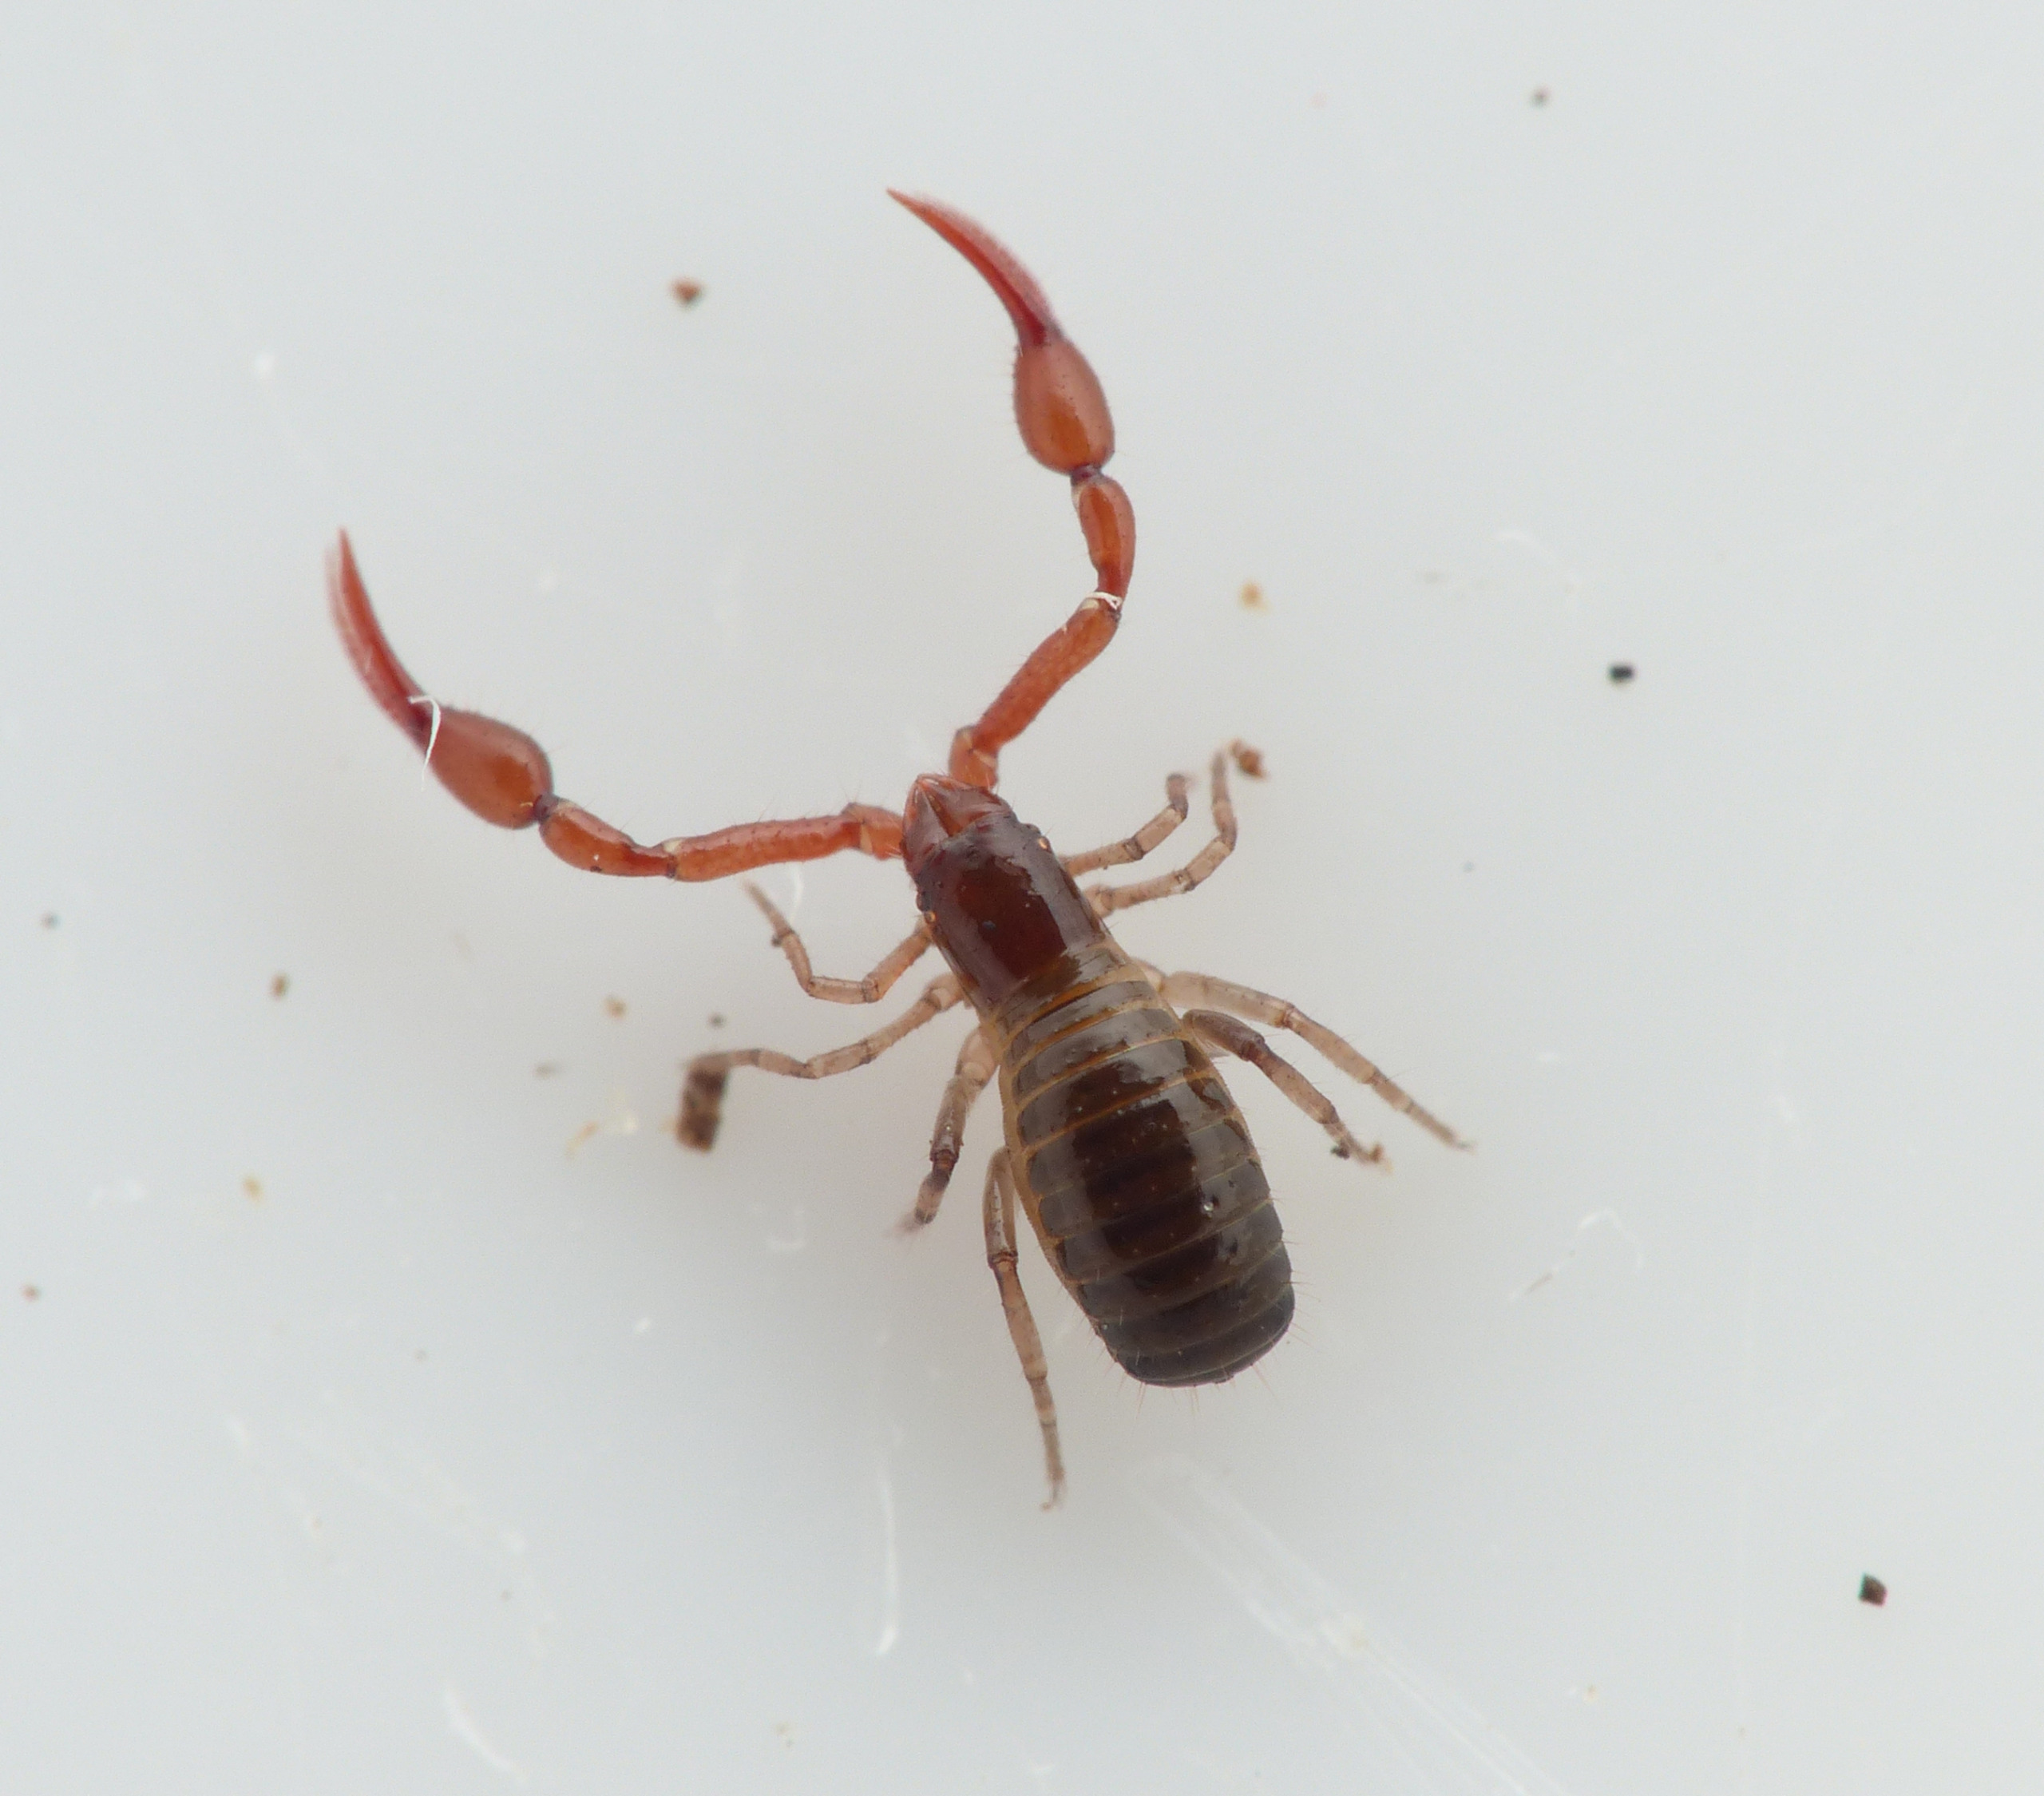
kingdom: Animalia
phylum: Arthropoda
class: Arachnida
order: Pseudoscorpiones
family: Neobisiidae
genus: Neobisium
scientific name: Neobisium carcinoides
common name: Almindelig mosskorpion
